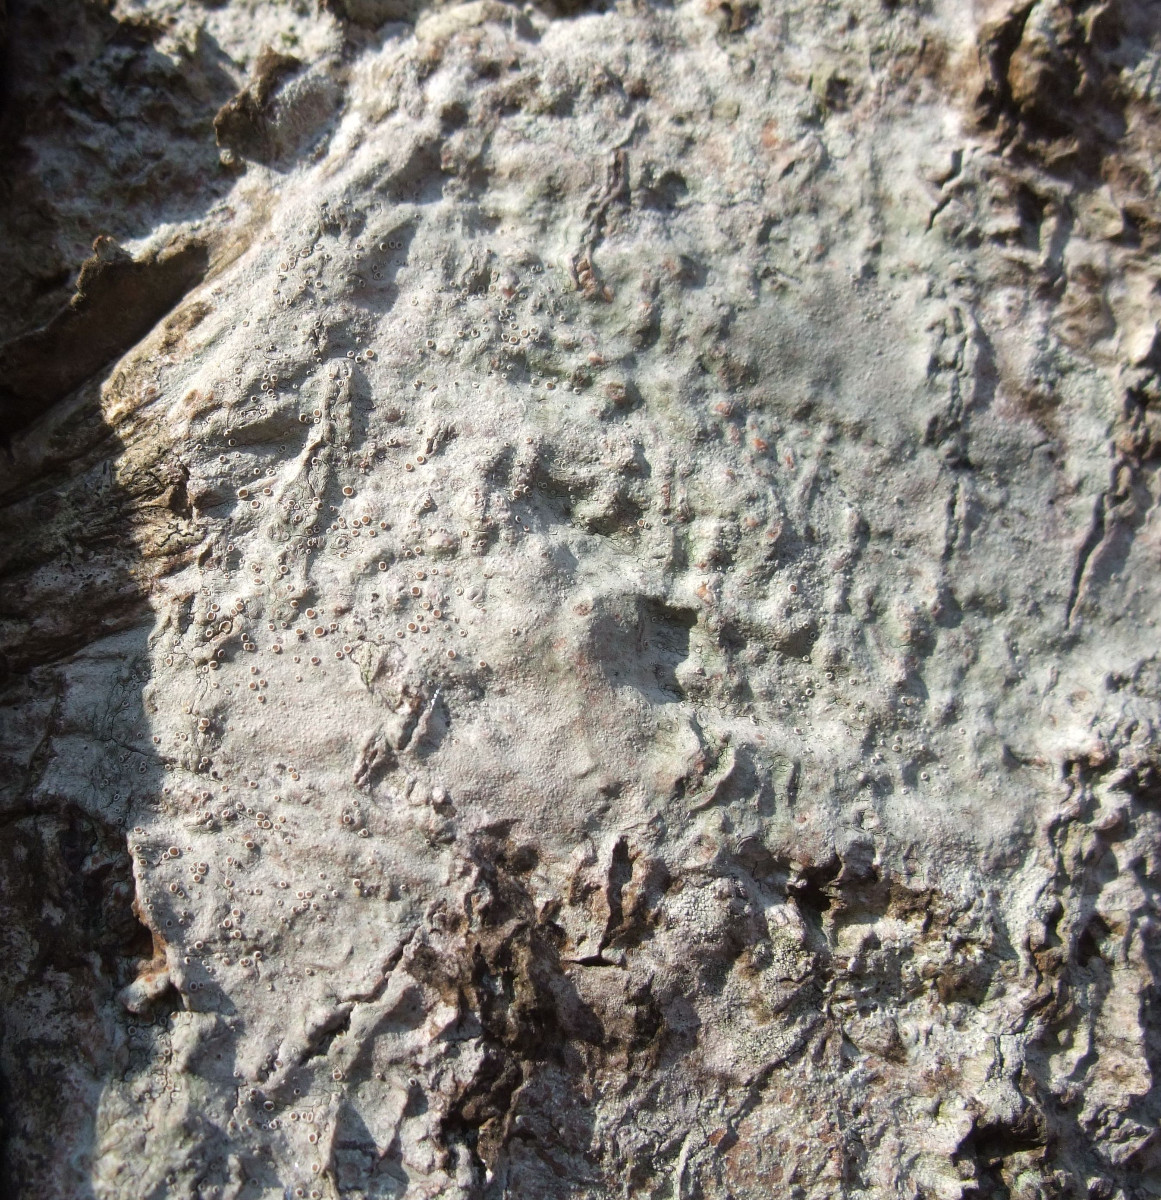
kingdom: Fungi
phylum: Ascomycota
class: Lecanoromycetes
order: Lecanorales
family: Lecanoraceae
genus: Lecanora
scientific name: Lecanora glabrata
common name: bøge-kantskivelav
